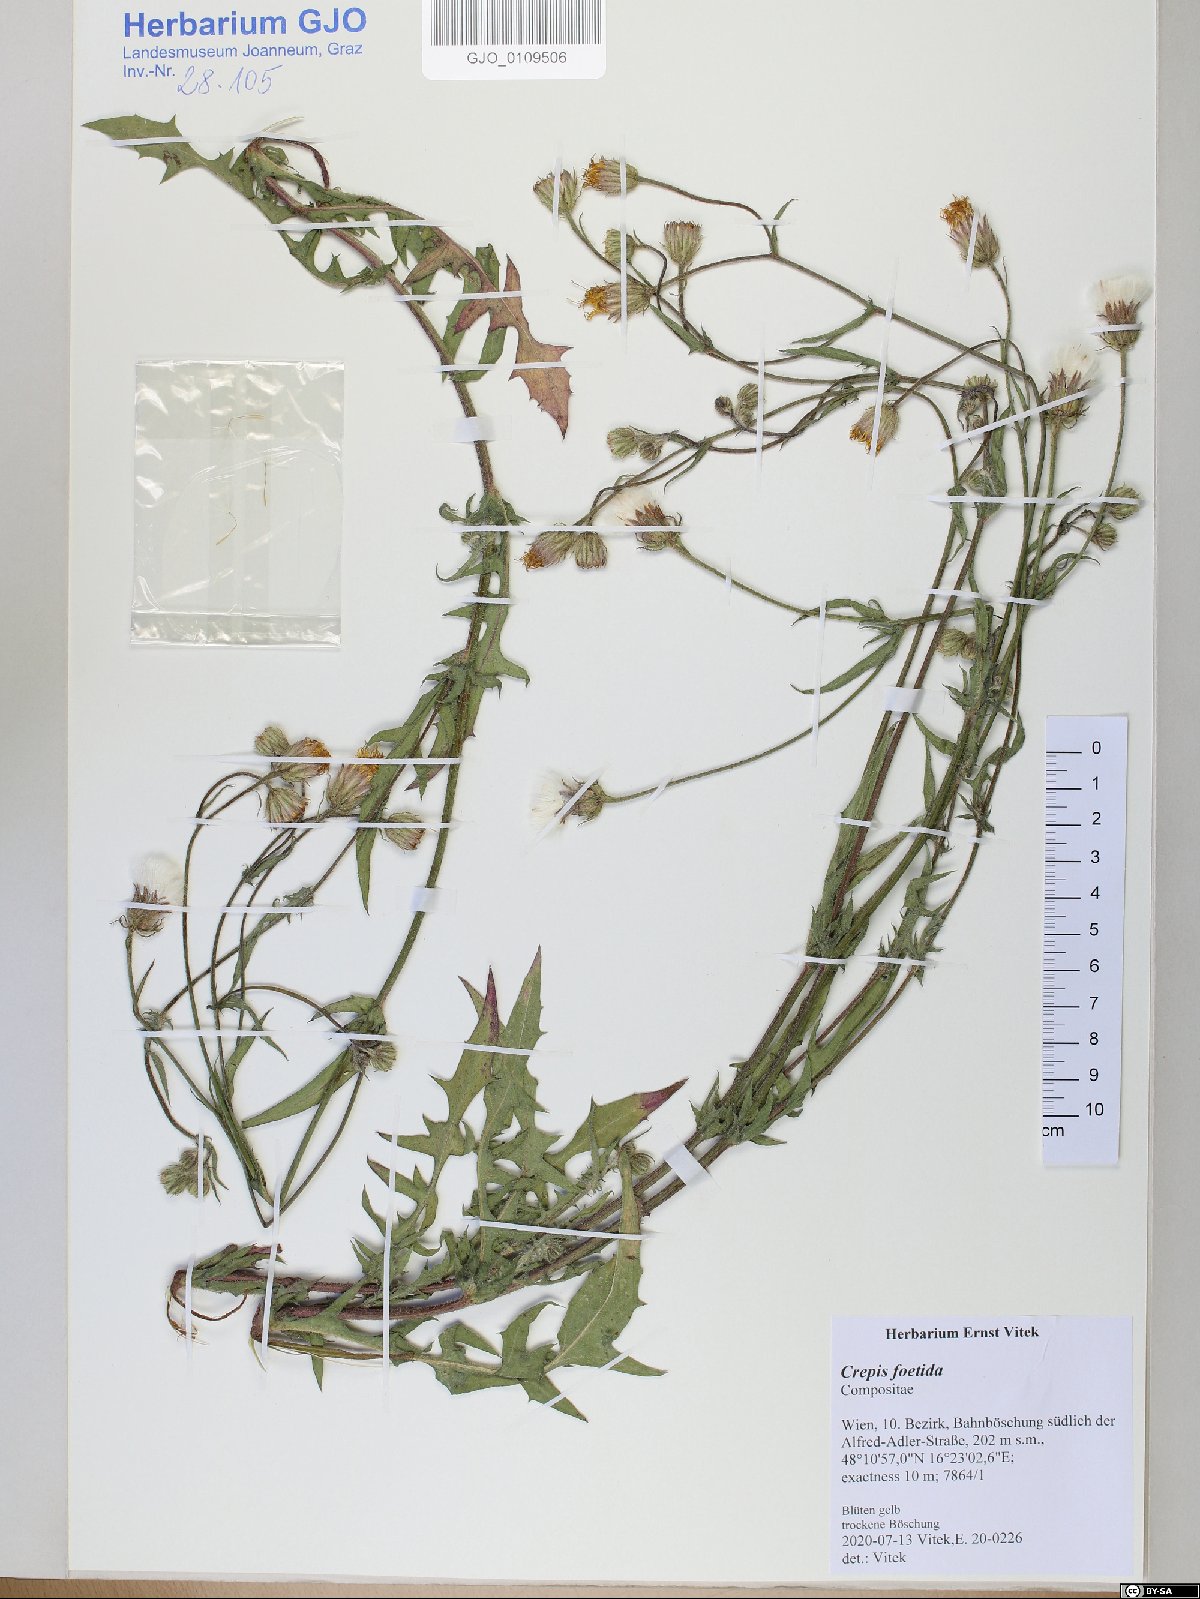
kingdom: Plantae
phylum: Tracheophyta
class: Magnoliopsida
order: Asterales
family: Asteraceae
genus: Crepis
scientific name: Crepis foetida
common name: Stinking hawk's-beard
